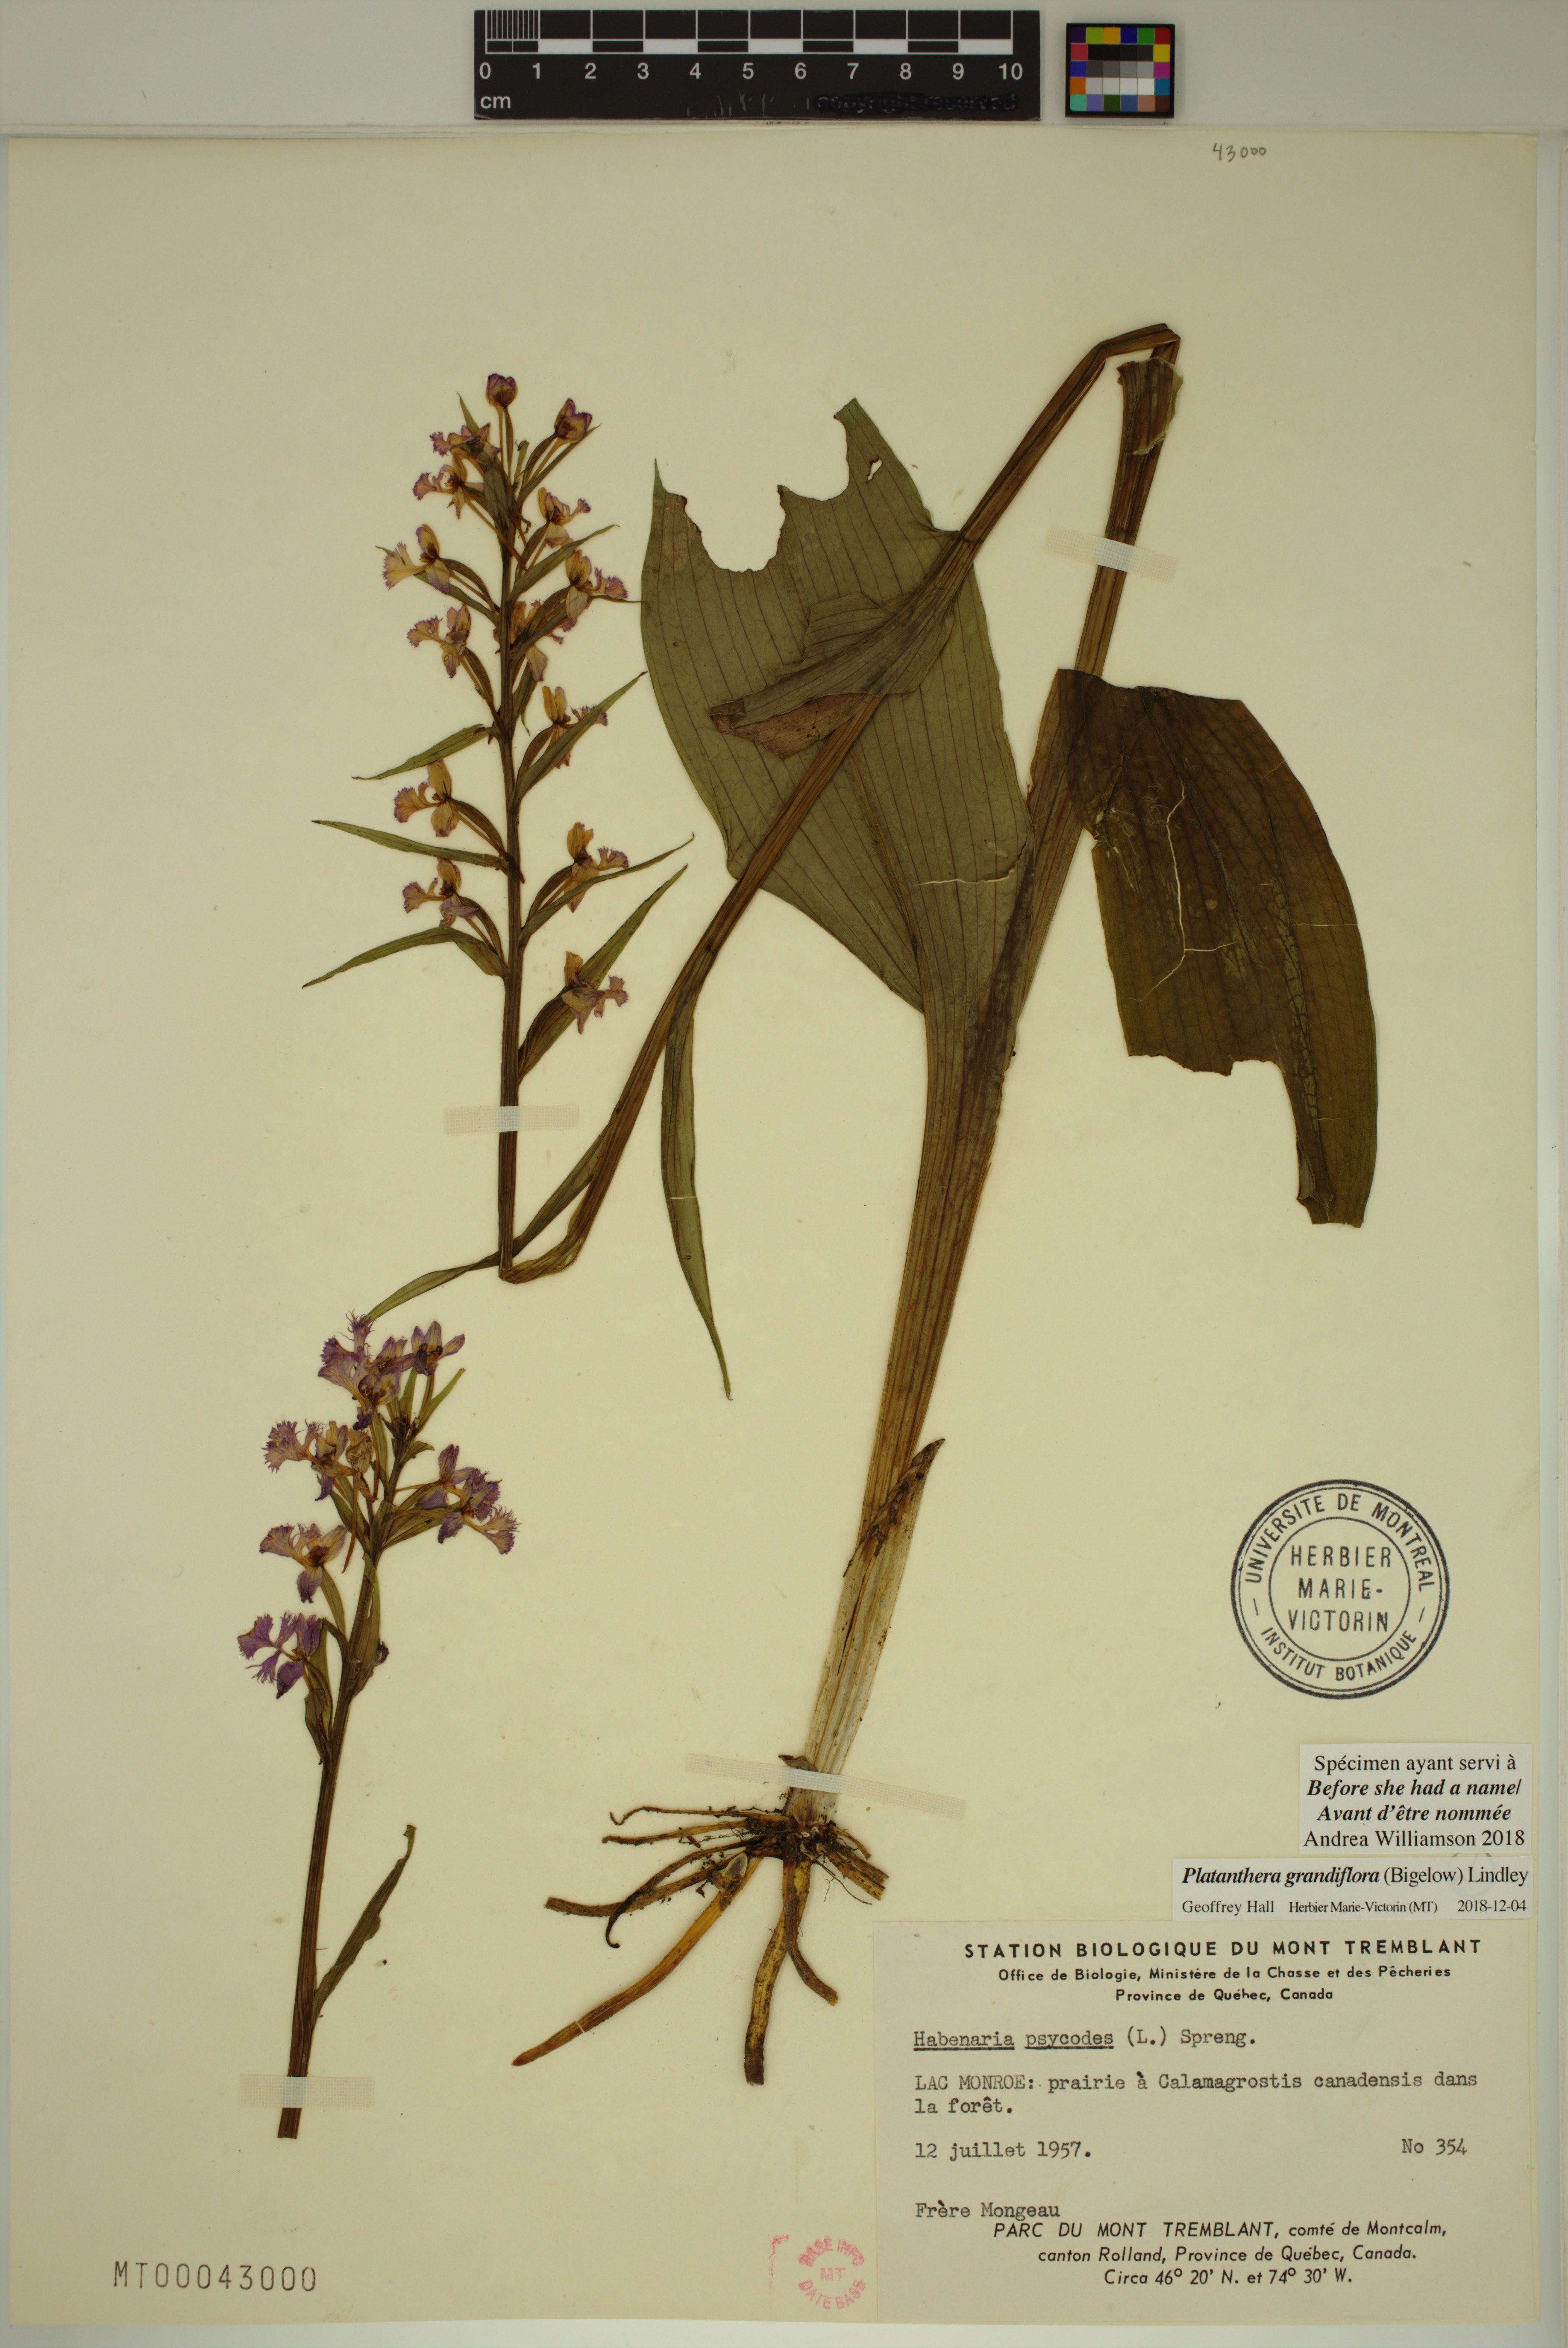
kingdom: Plantae
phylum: Tracheophyta
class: Liliopsida
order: Asparagales
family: Orchidaceae
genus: Platanthera
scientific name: Platanthera grandiflora
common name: Greater purple fringed orchid
